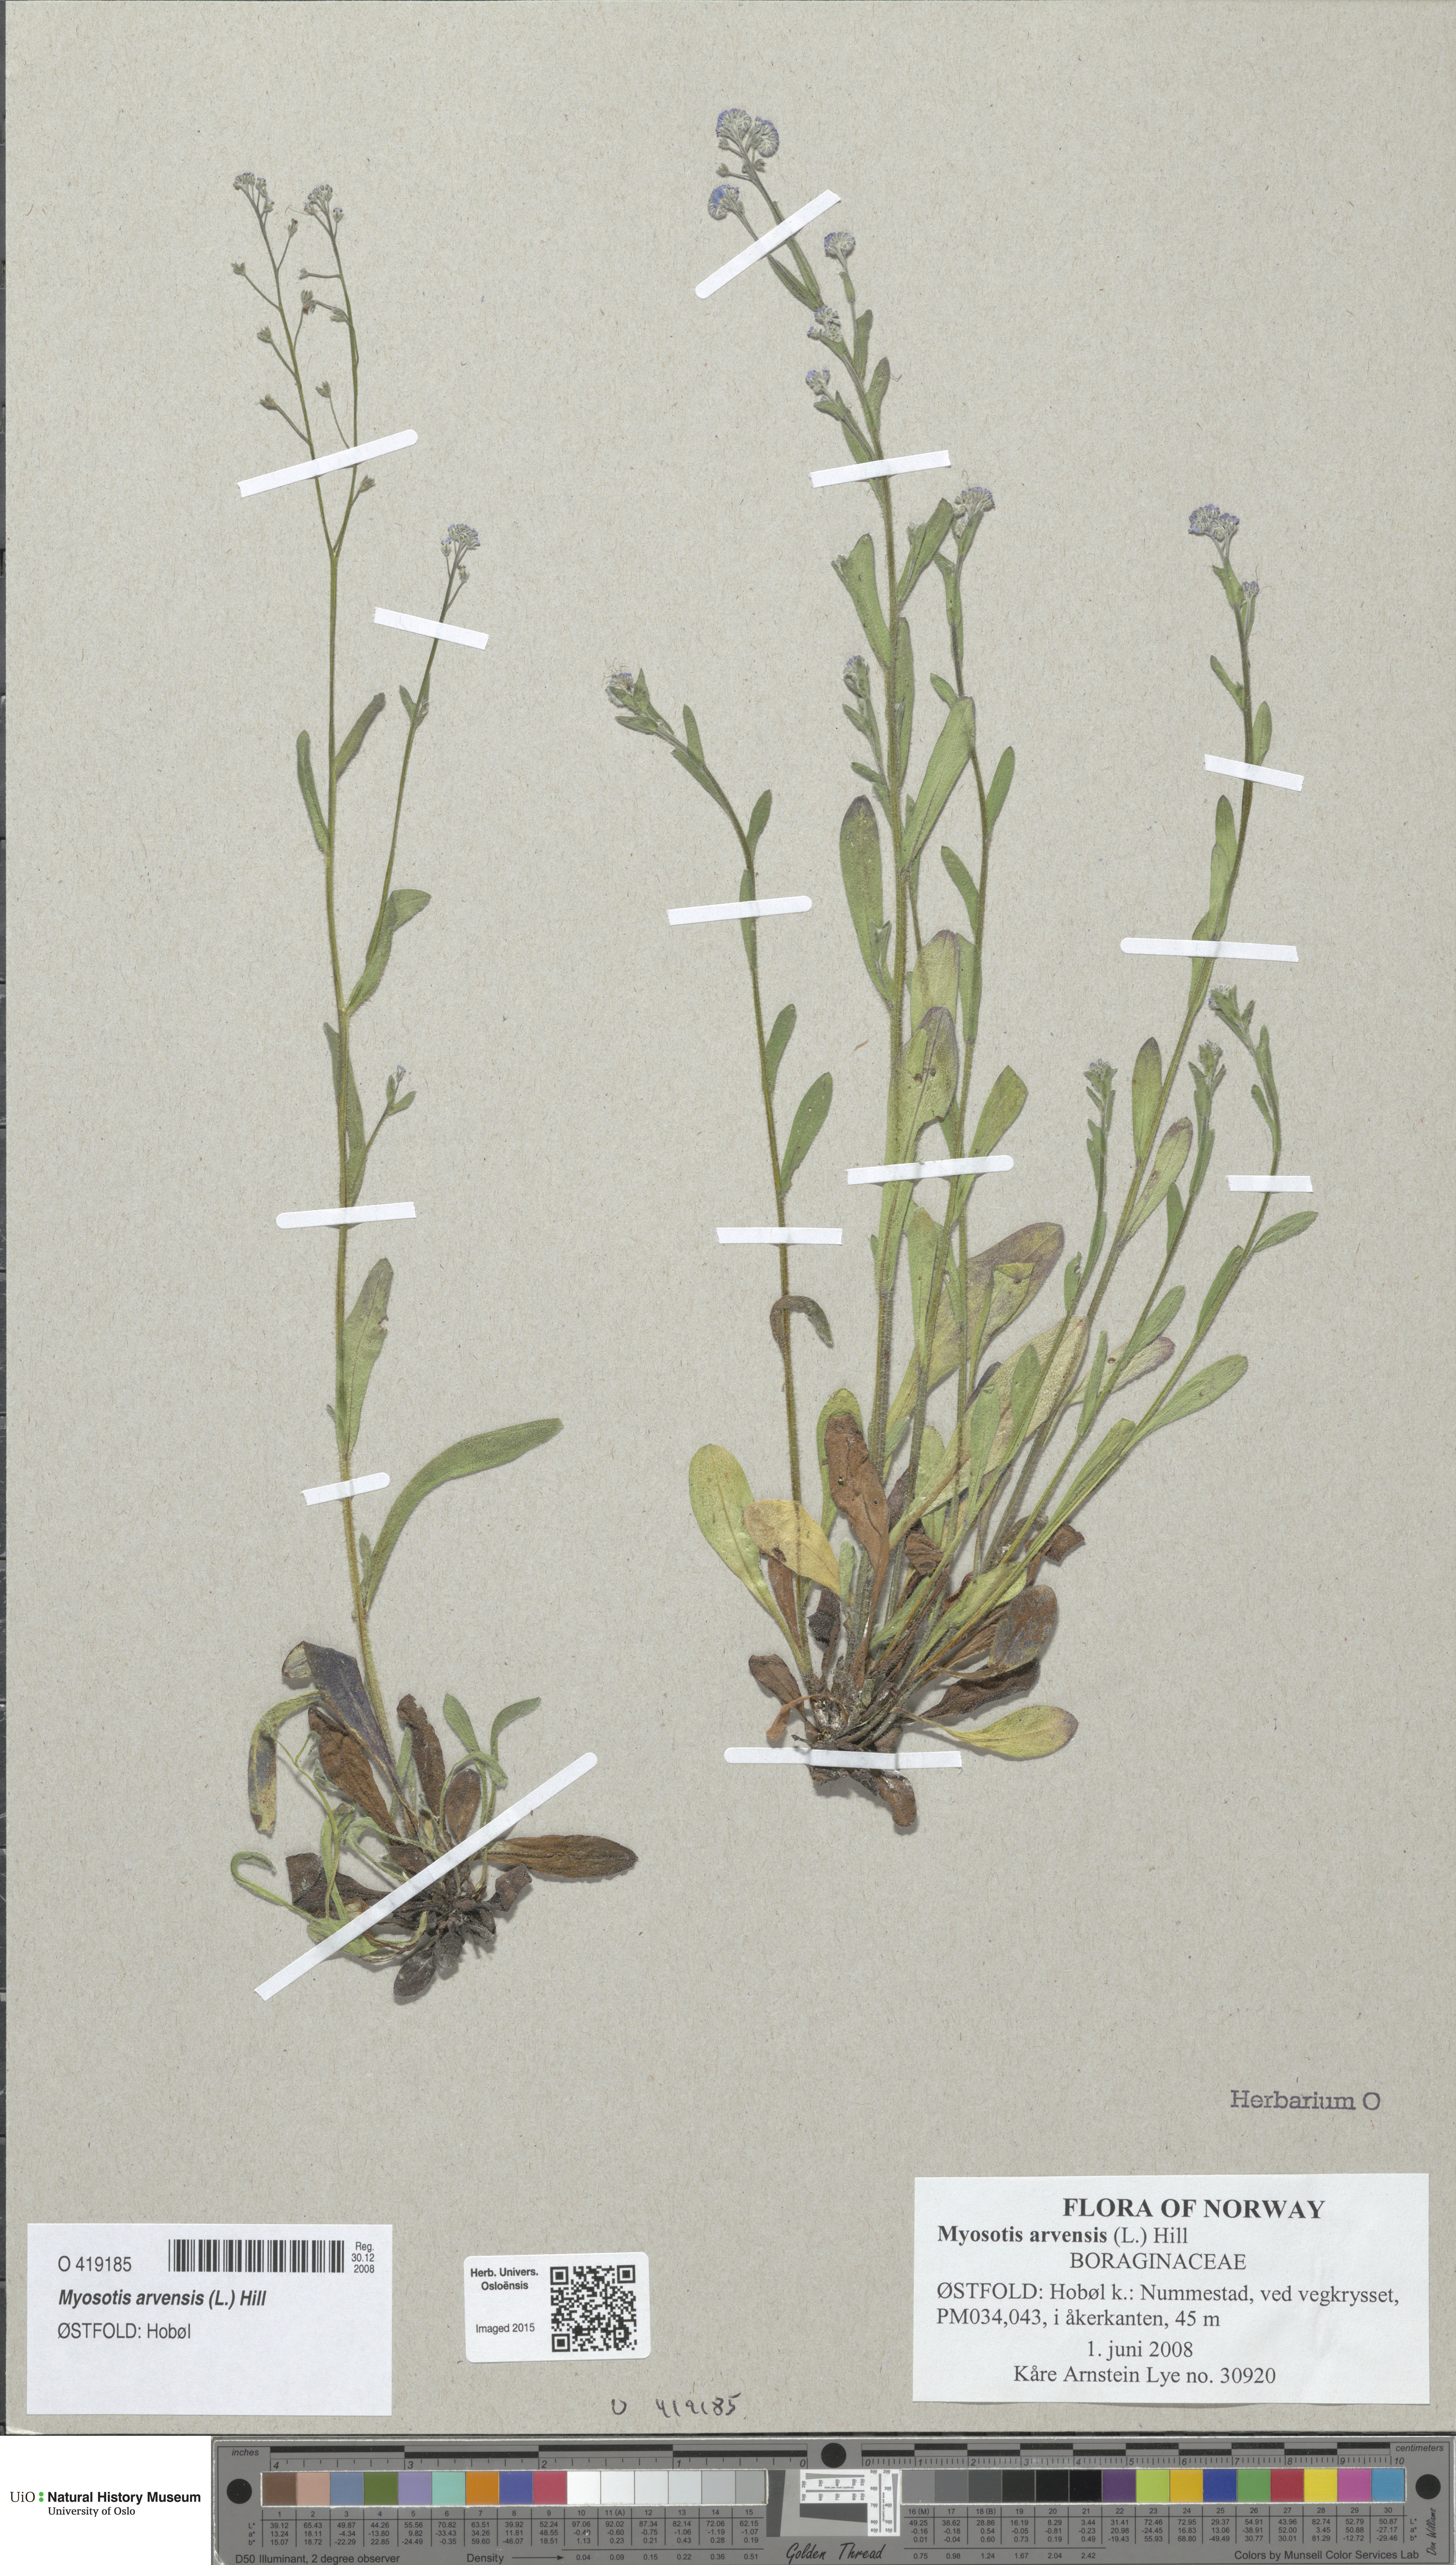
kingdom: Plantae
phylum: Tracheophyta
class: Magnoliopsida
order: Boraginales
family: Boraginaceae
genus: Myosotis
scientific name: Myosotis arvensis
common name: Field forget-me-not
